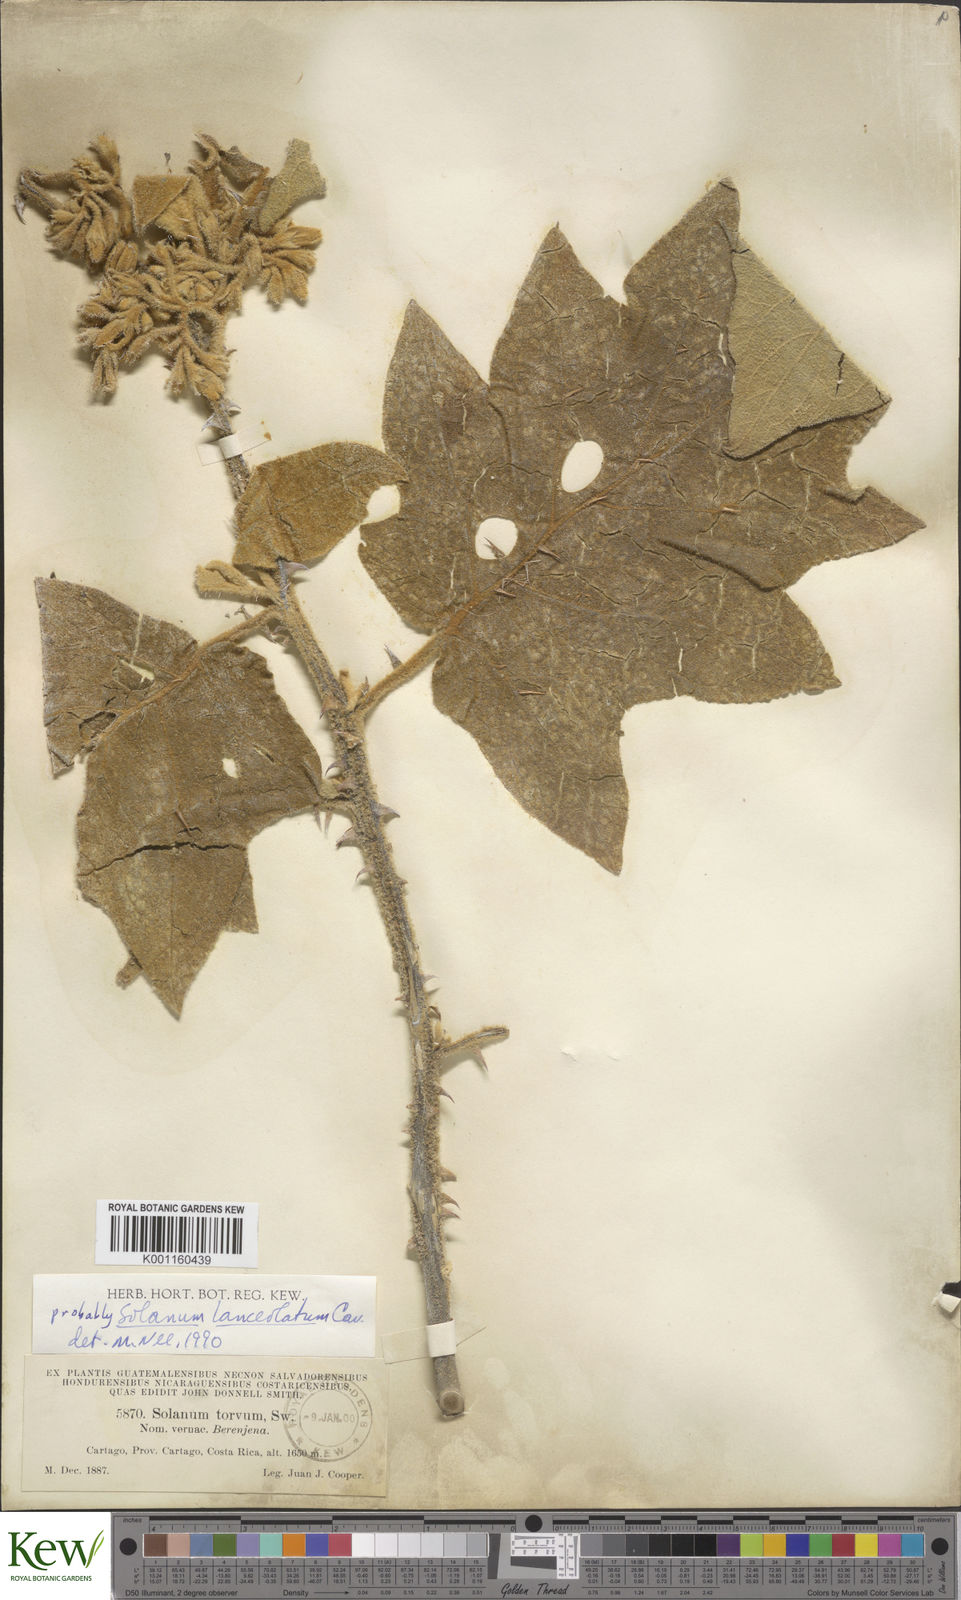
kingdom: Plantae
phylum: Tracheophyta
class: Magnoliopsida
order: Solanales
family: Solanaceae
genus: Solanum
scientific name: Solanum lanceolatum
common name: Orangeberry nightshade
